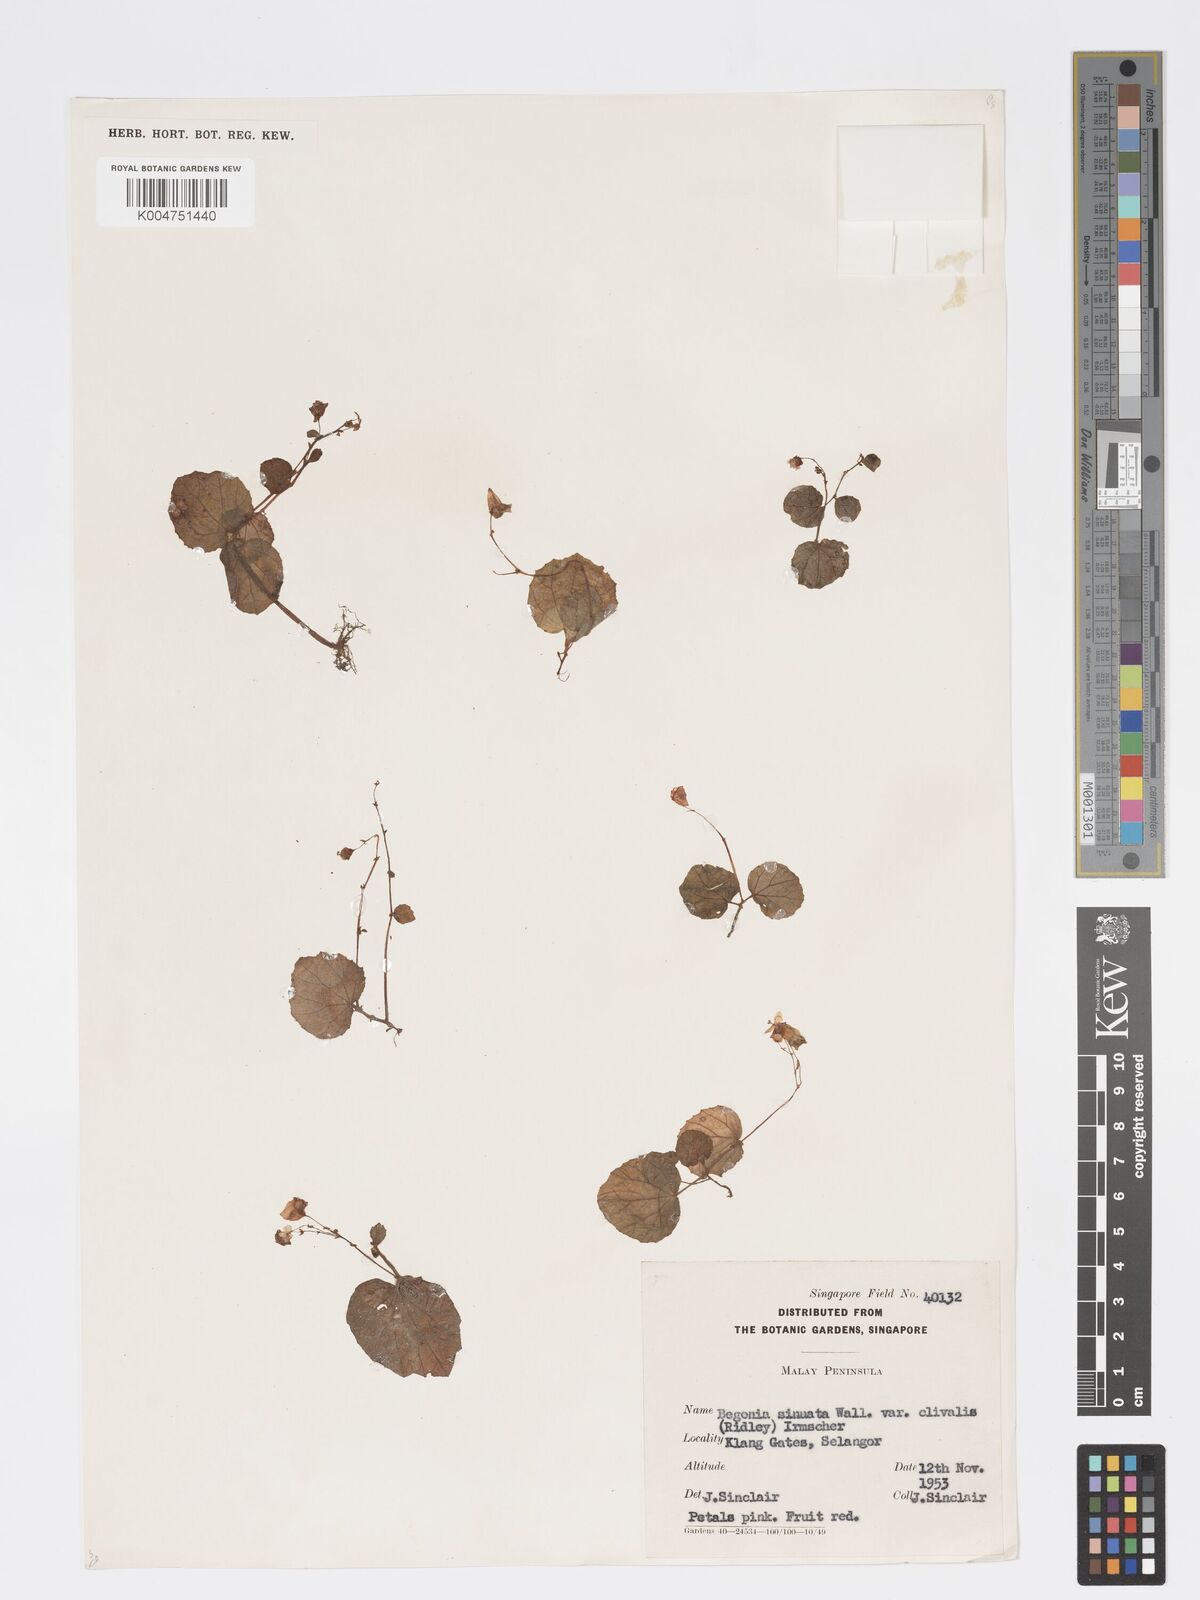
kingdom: Plantae
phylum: Tracheophyta
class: Magnoliopsida
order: Cucurbitales
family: Begoniaceae
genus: Begonia
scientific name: Begonia
